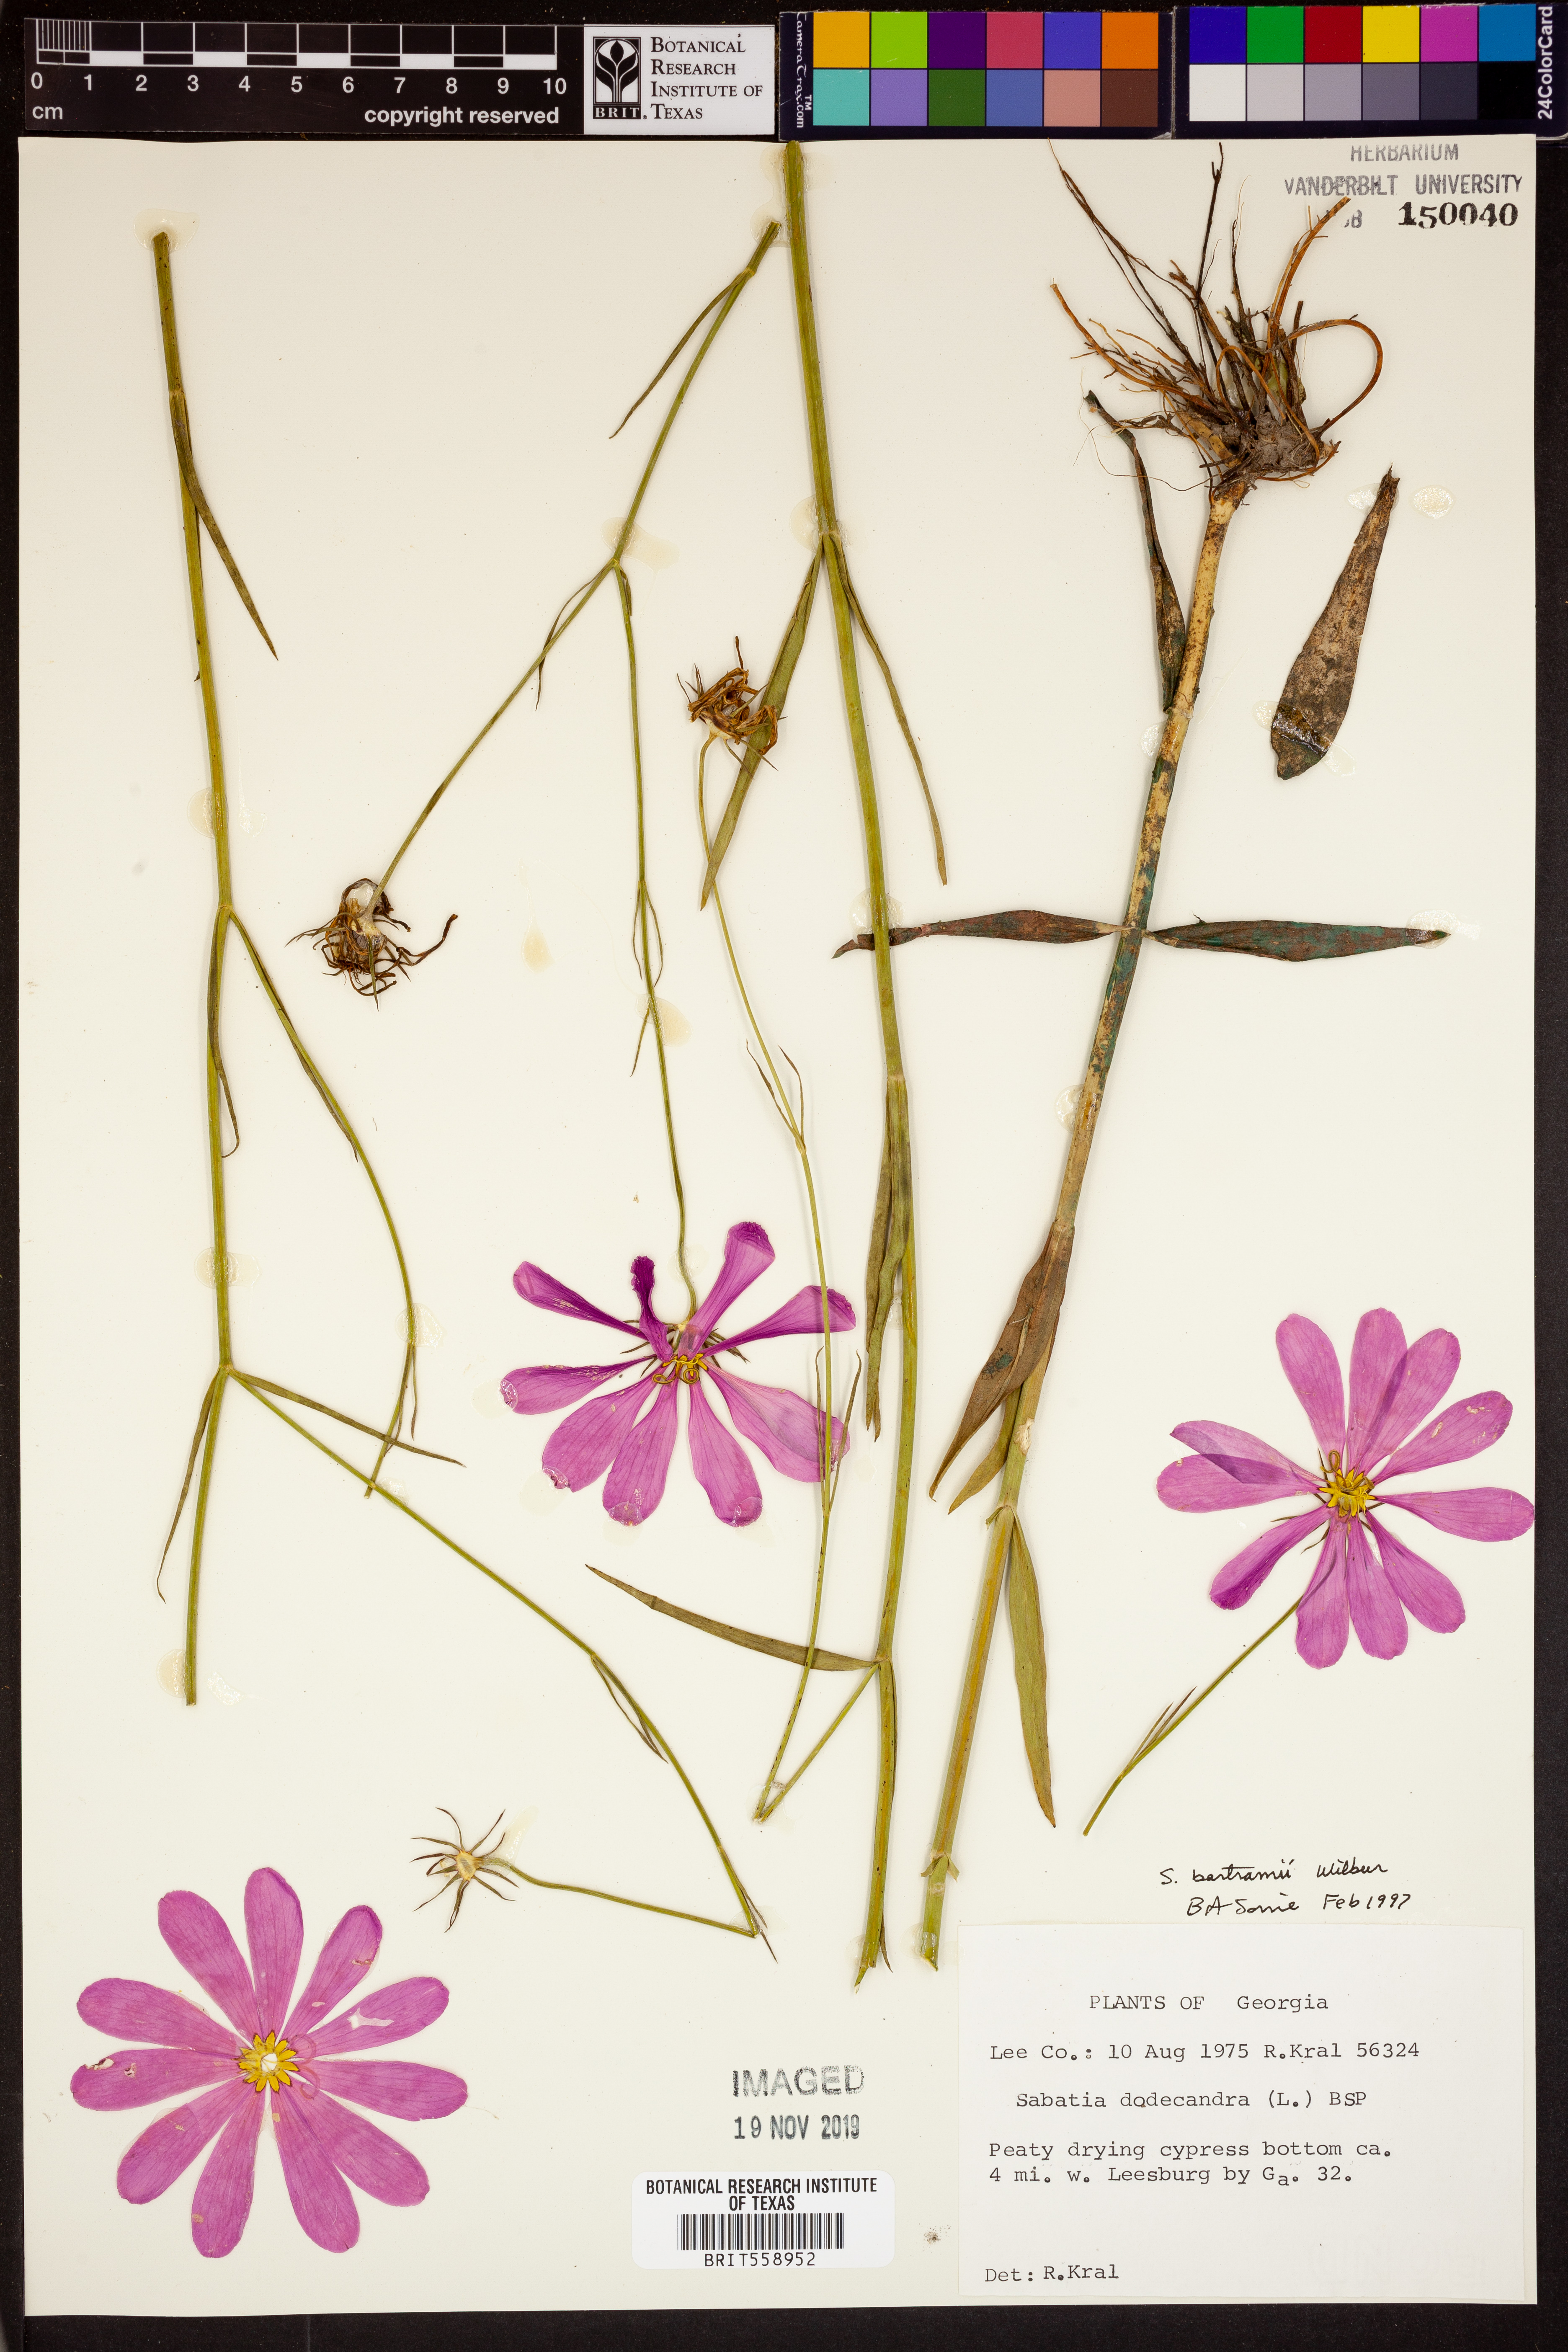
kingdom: Plantae
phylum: Tracheophyta
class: Magnoliopsida
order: Gentianales
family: Gentianaceae
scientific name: Gentianaceae
